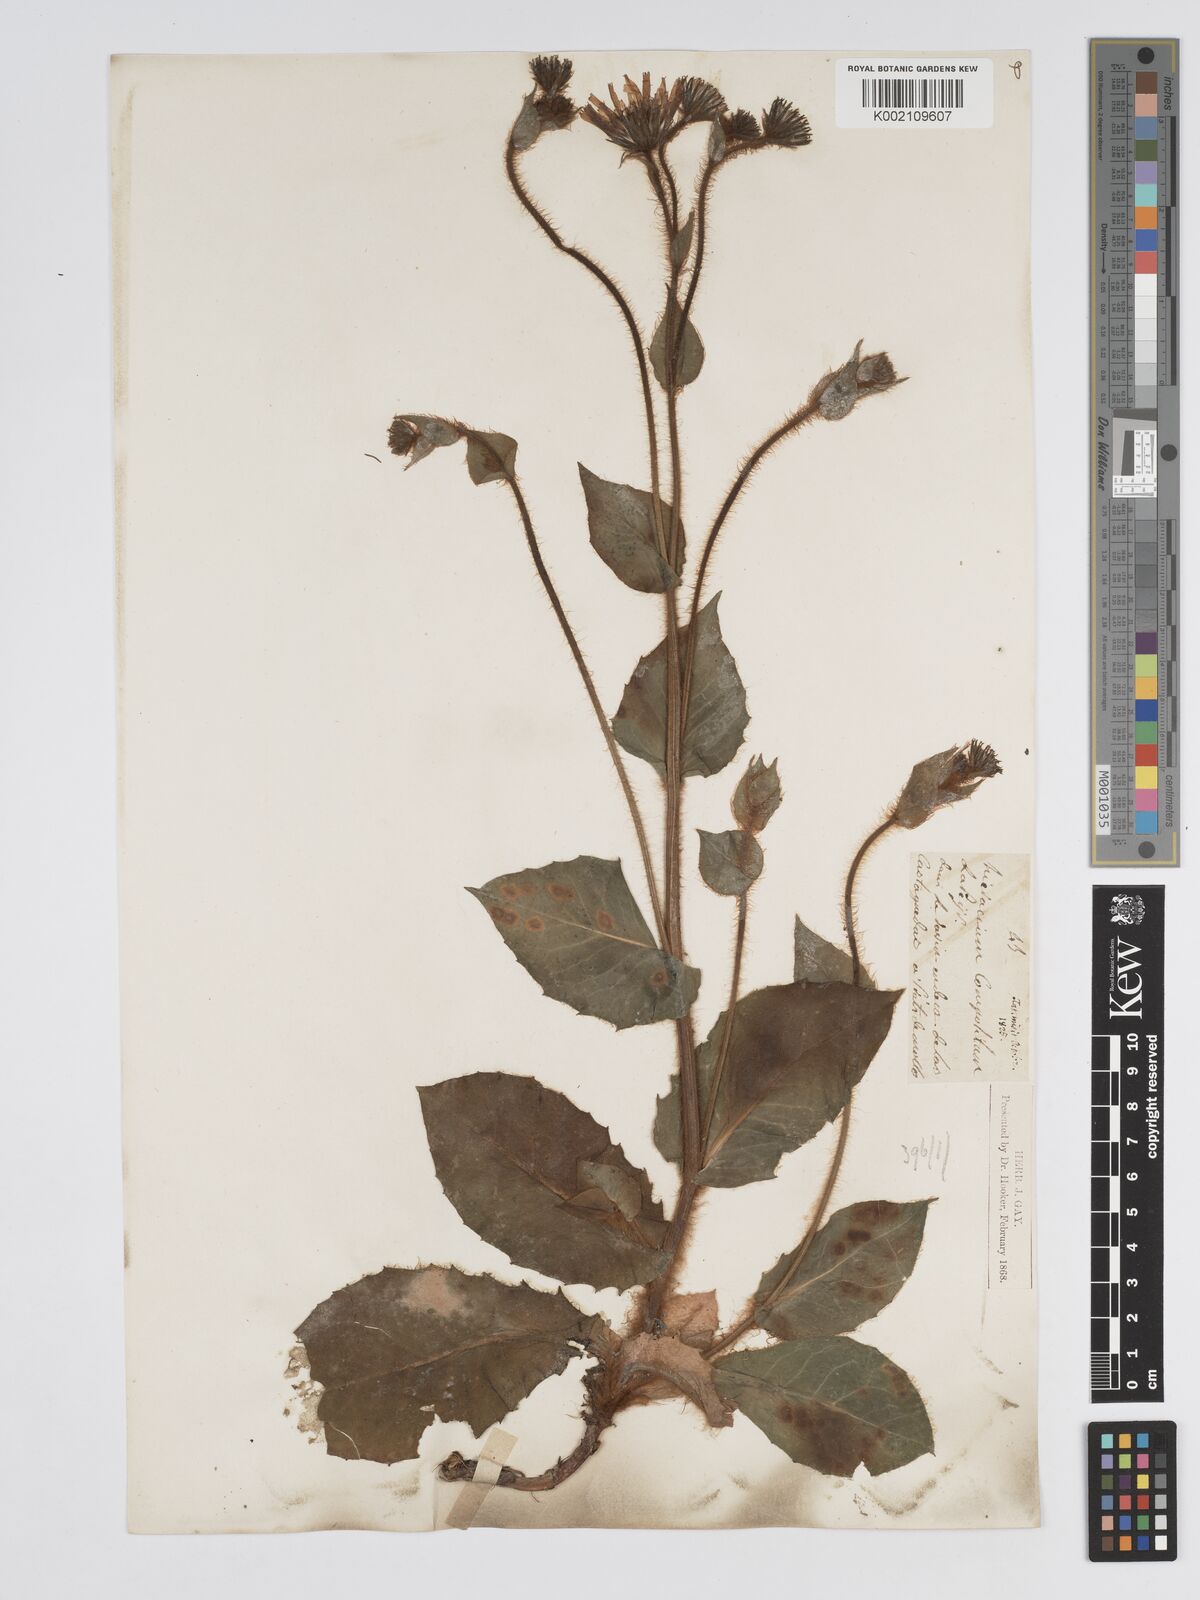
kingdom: Plantae
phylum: Tracheophyta
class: Magnoliopsida
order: Asterales
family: Asteraceae
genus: Hieracium
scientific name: Hieracium compositum
